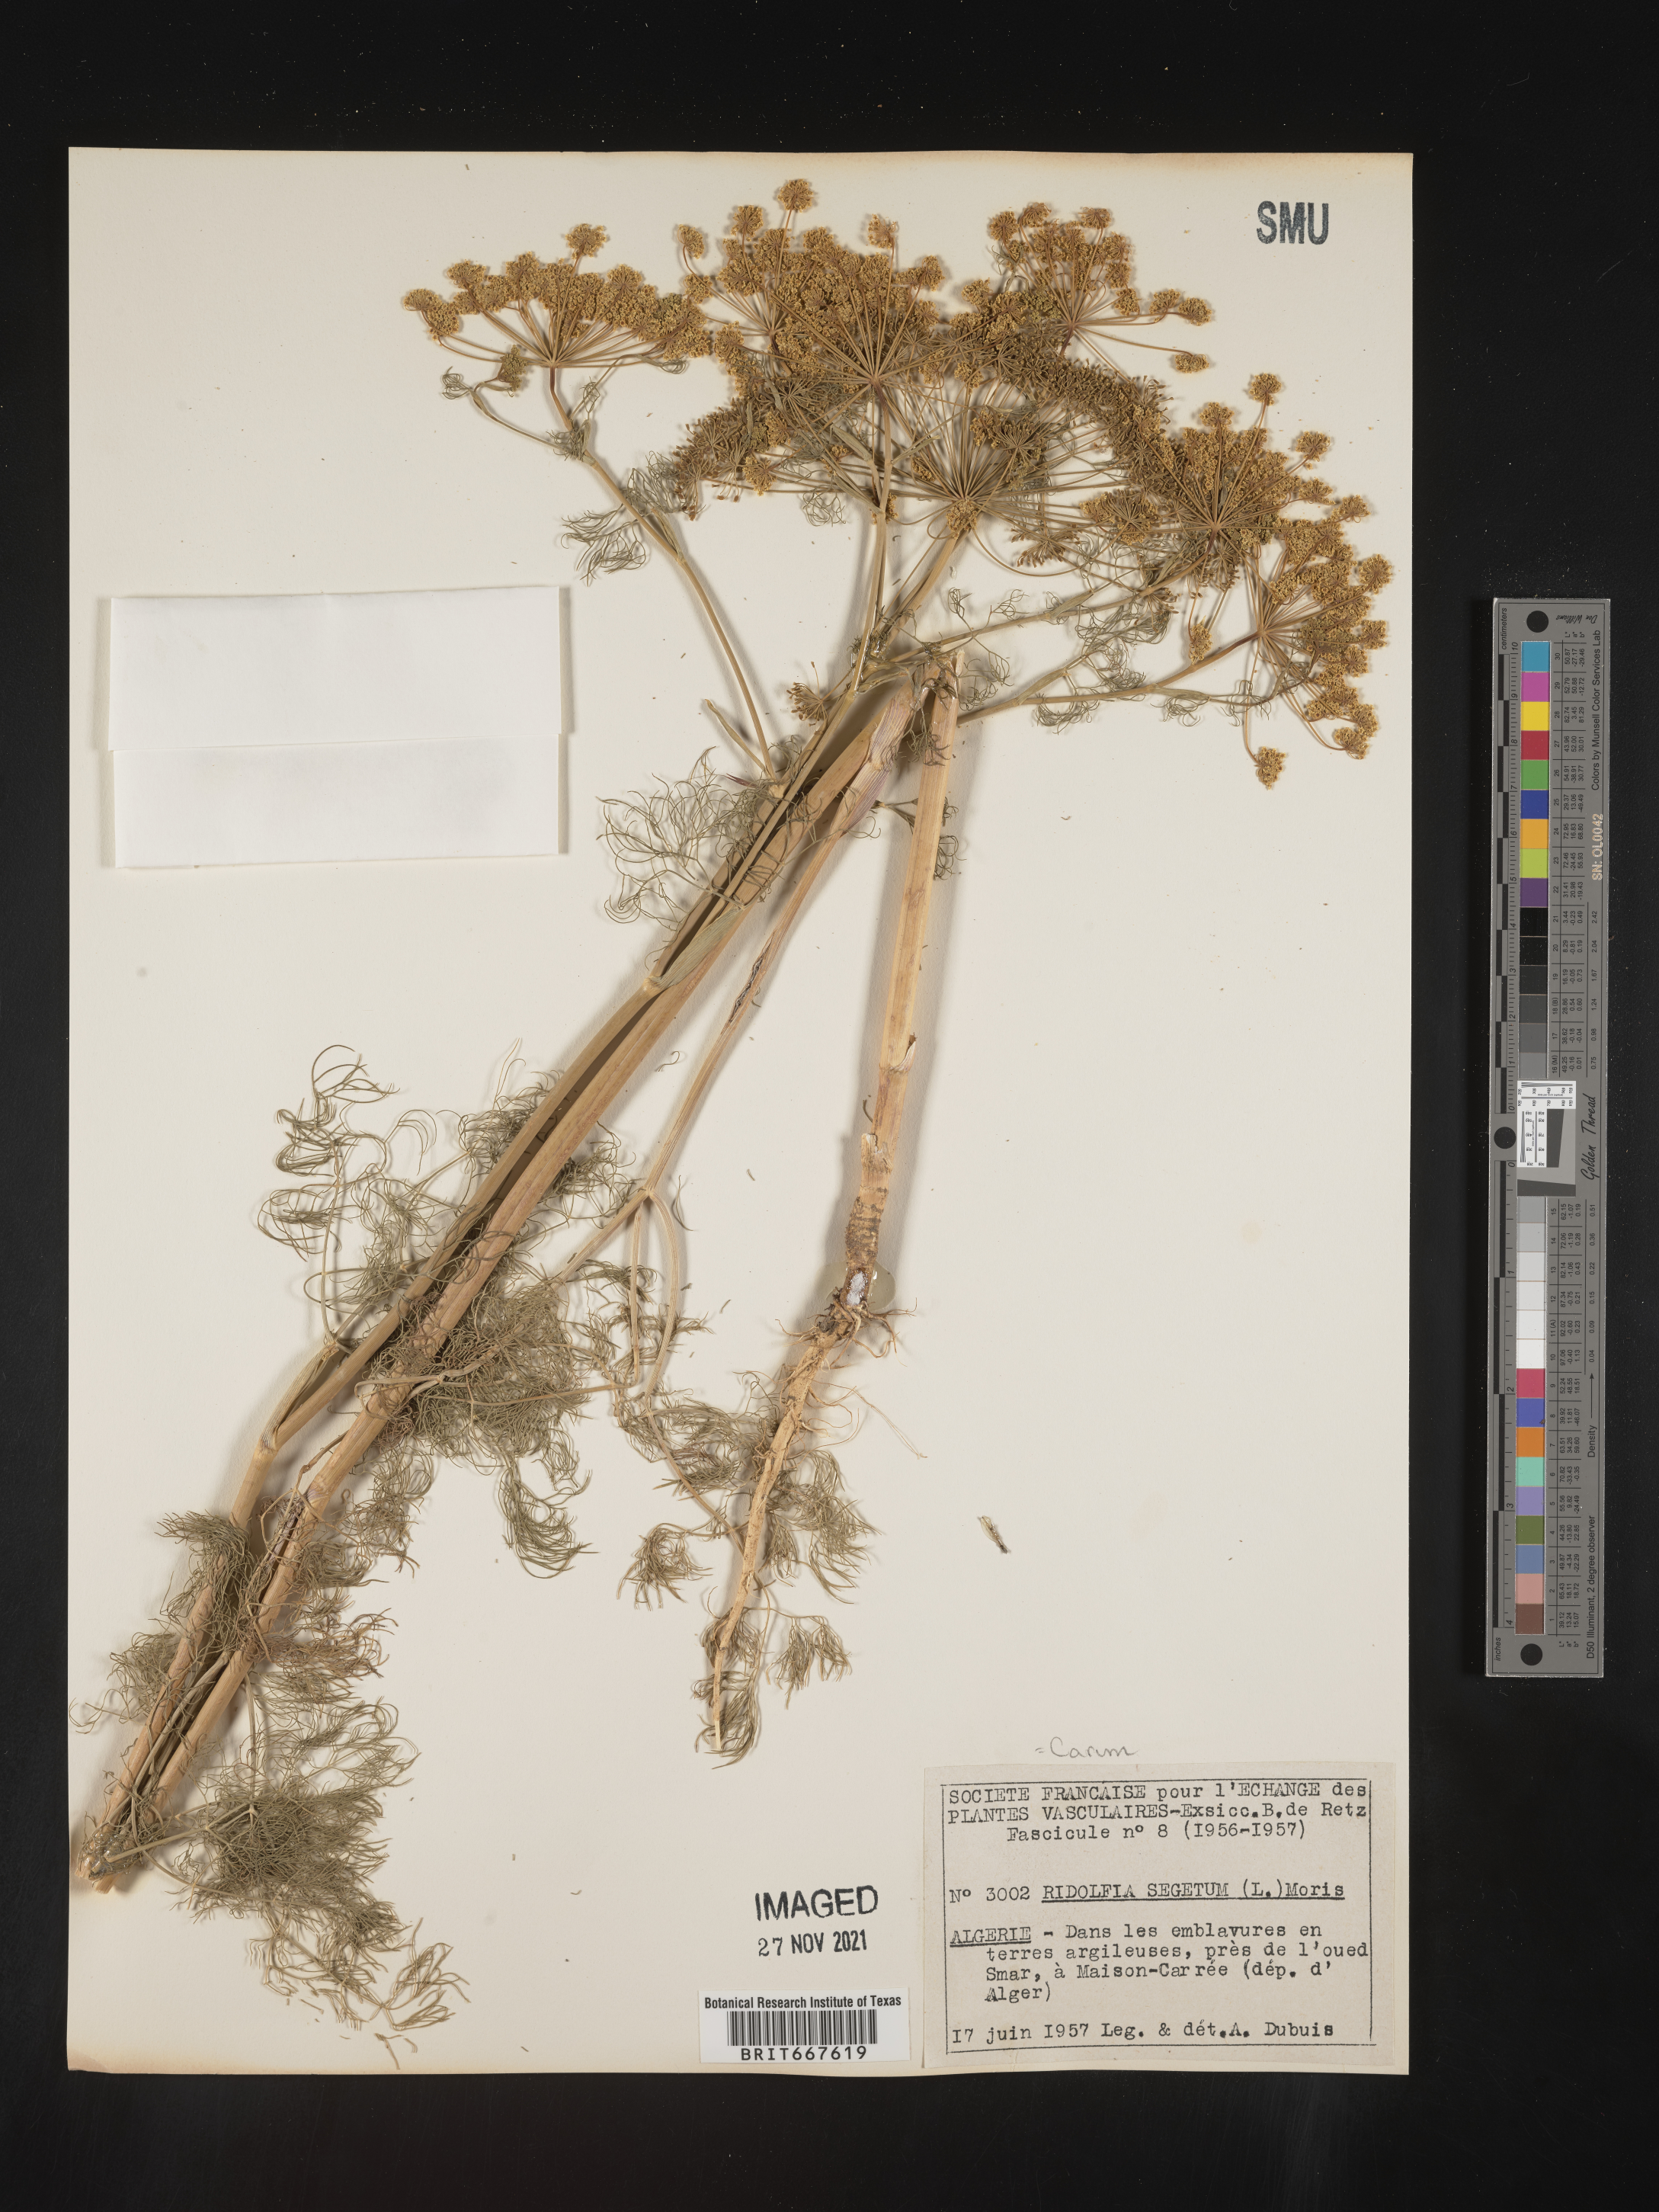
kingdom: Plantae
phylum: Tracheophyta
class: Magnoliopsida
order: Apiales
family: Apiaceae
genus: Carum
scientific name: Carum
